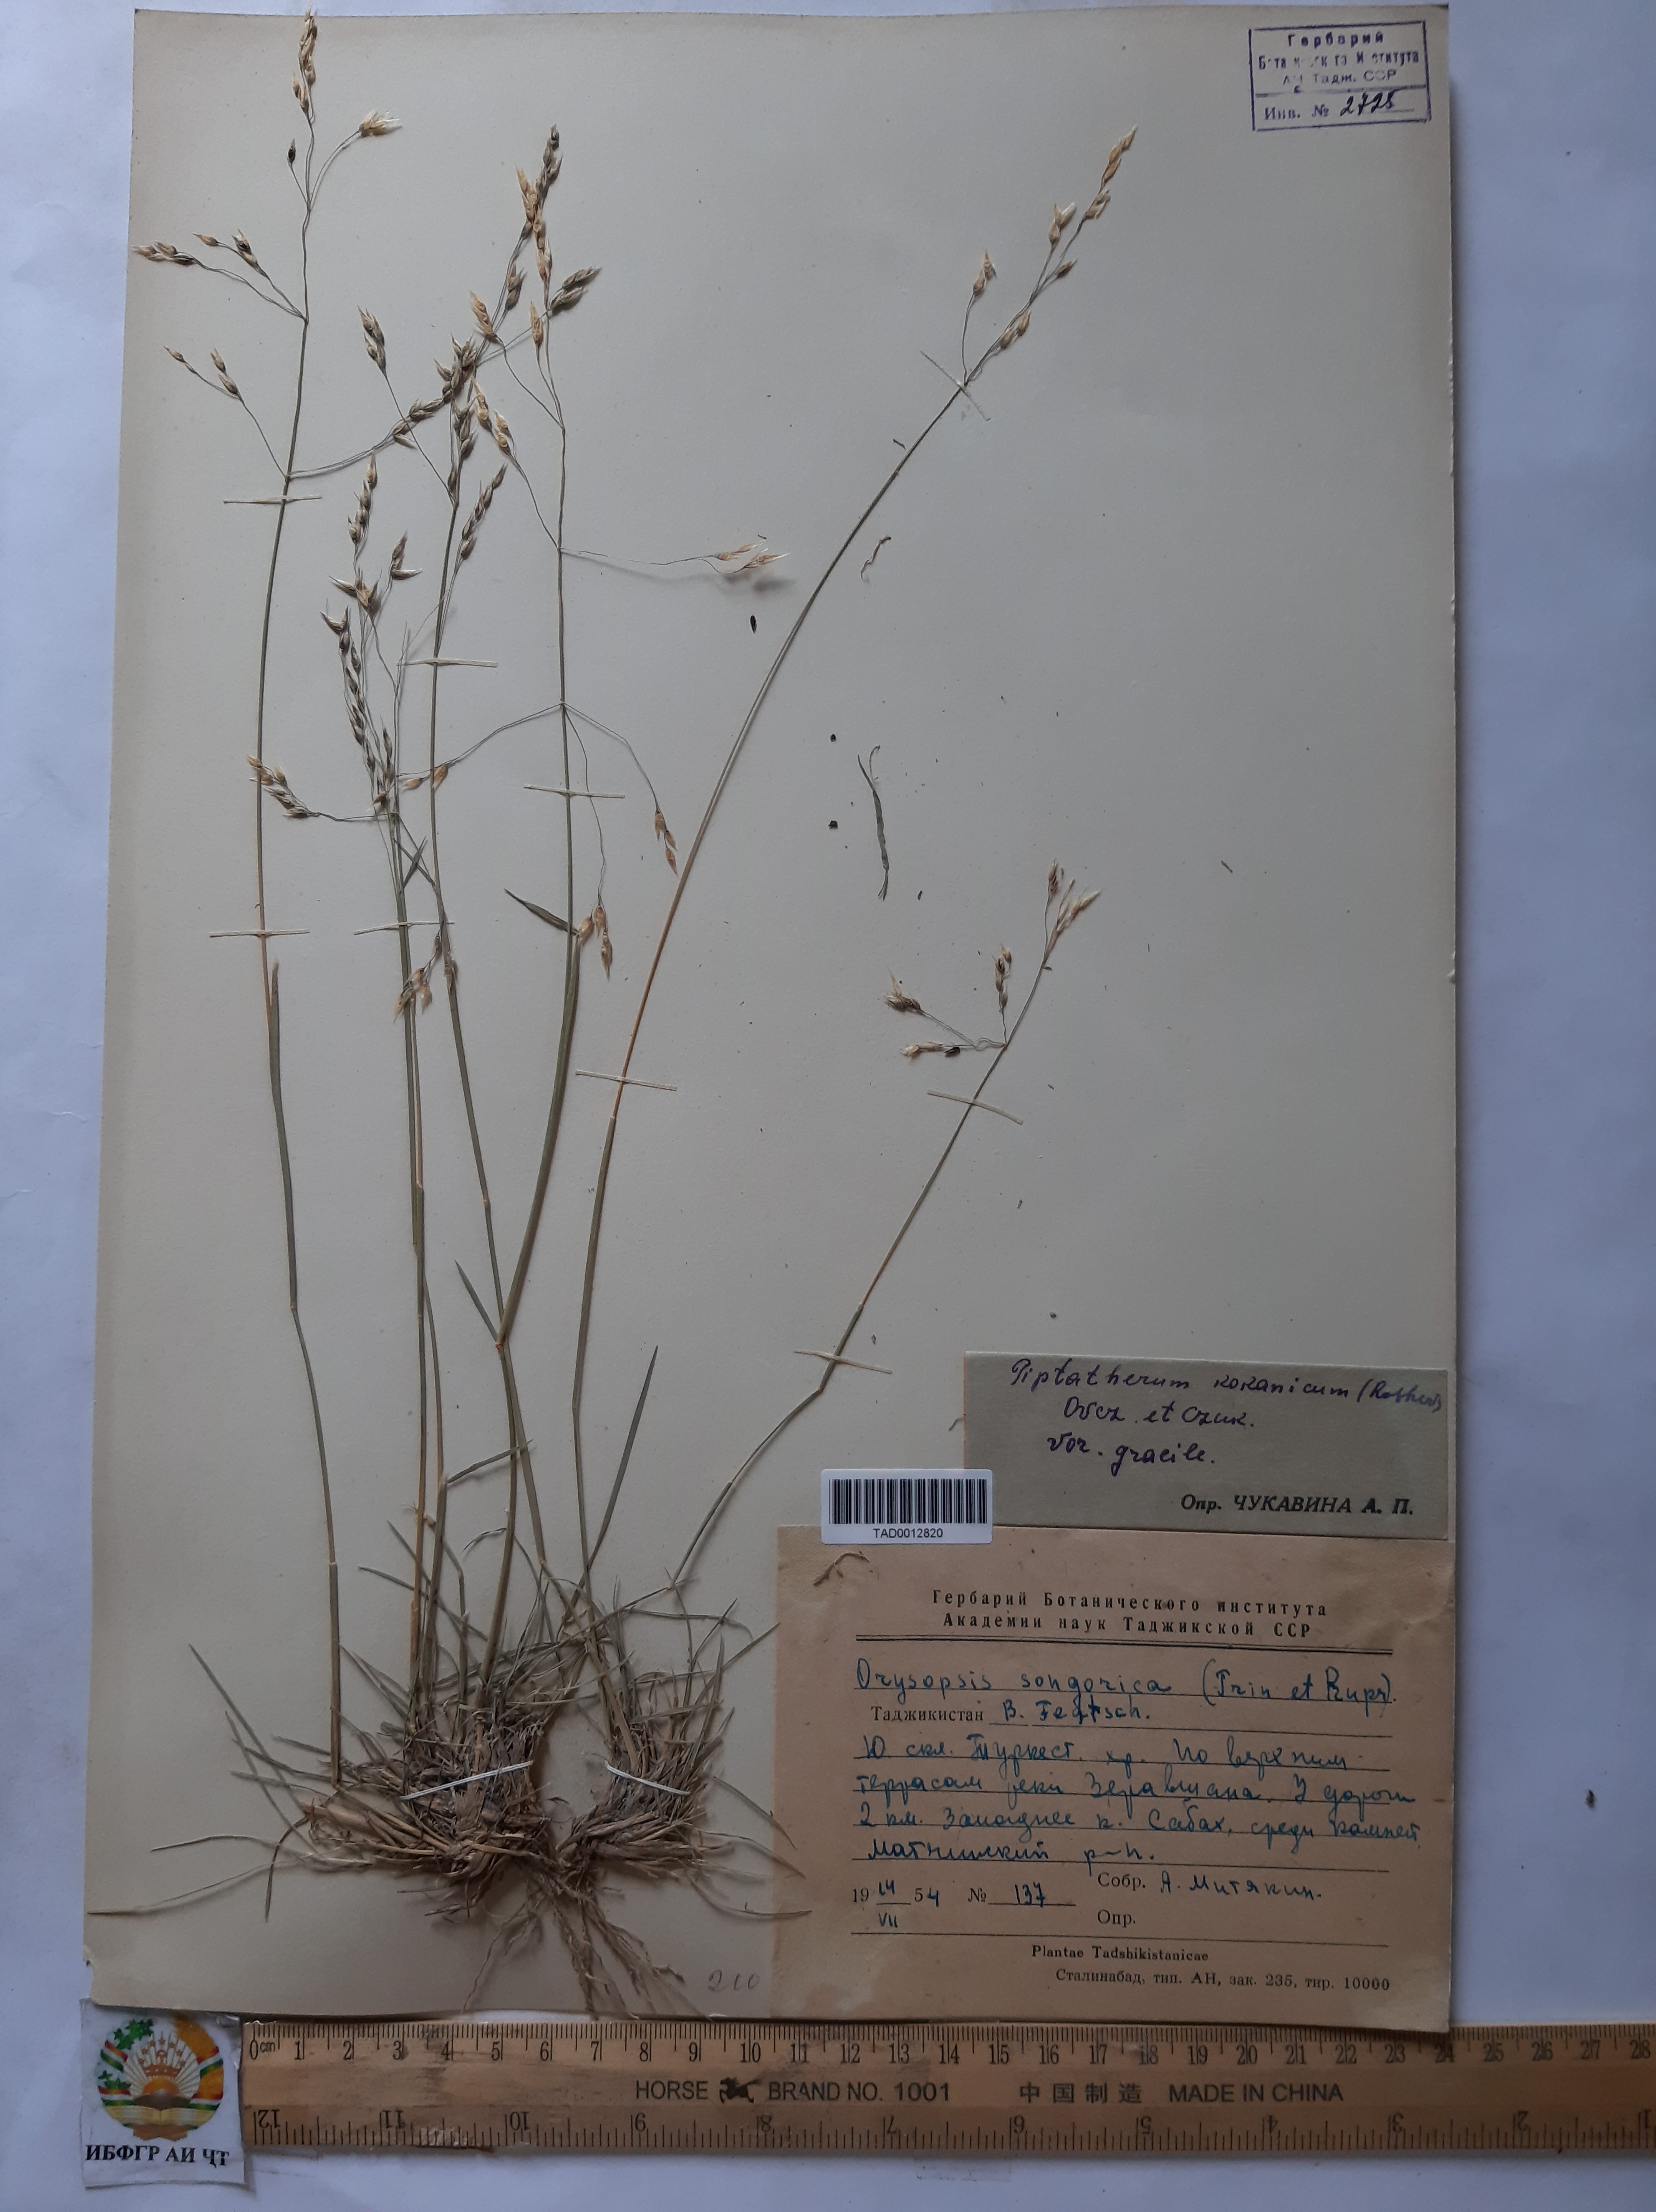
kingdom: Plantae
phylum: Tracheophyta
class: Liliopsida
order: Poales
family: Poaceae
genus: Piptatherum
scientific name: Piptatherum songaricum
